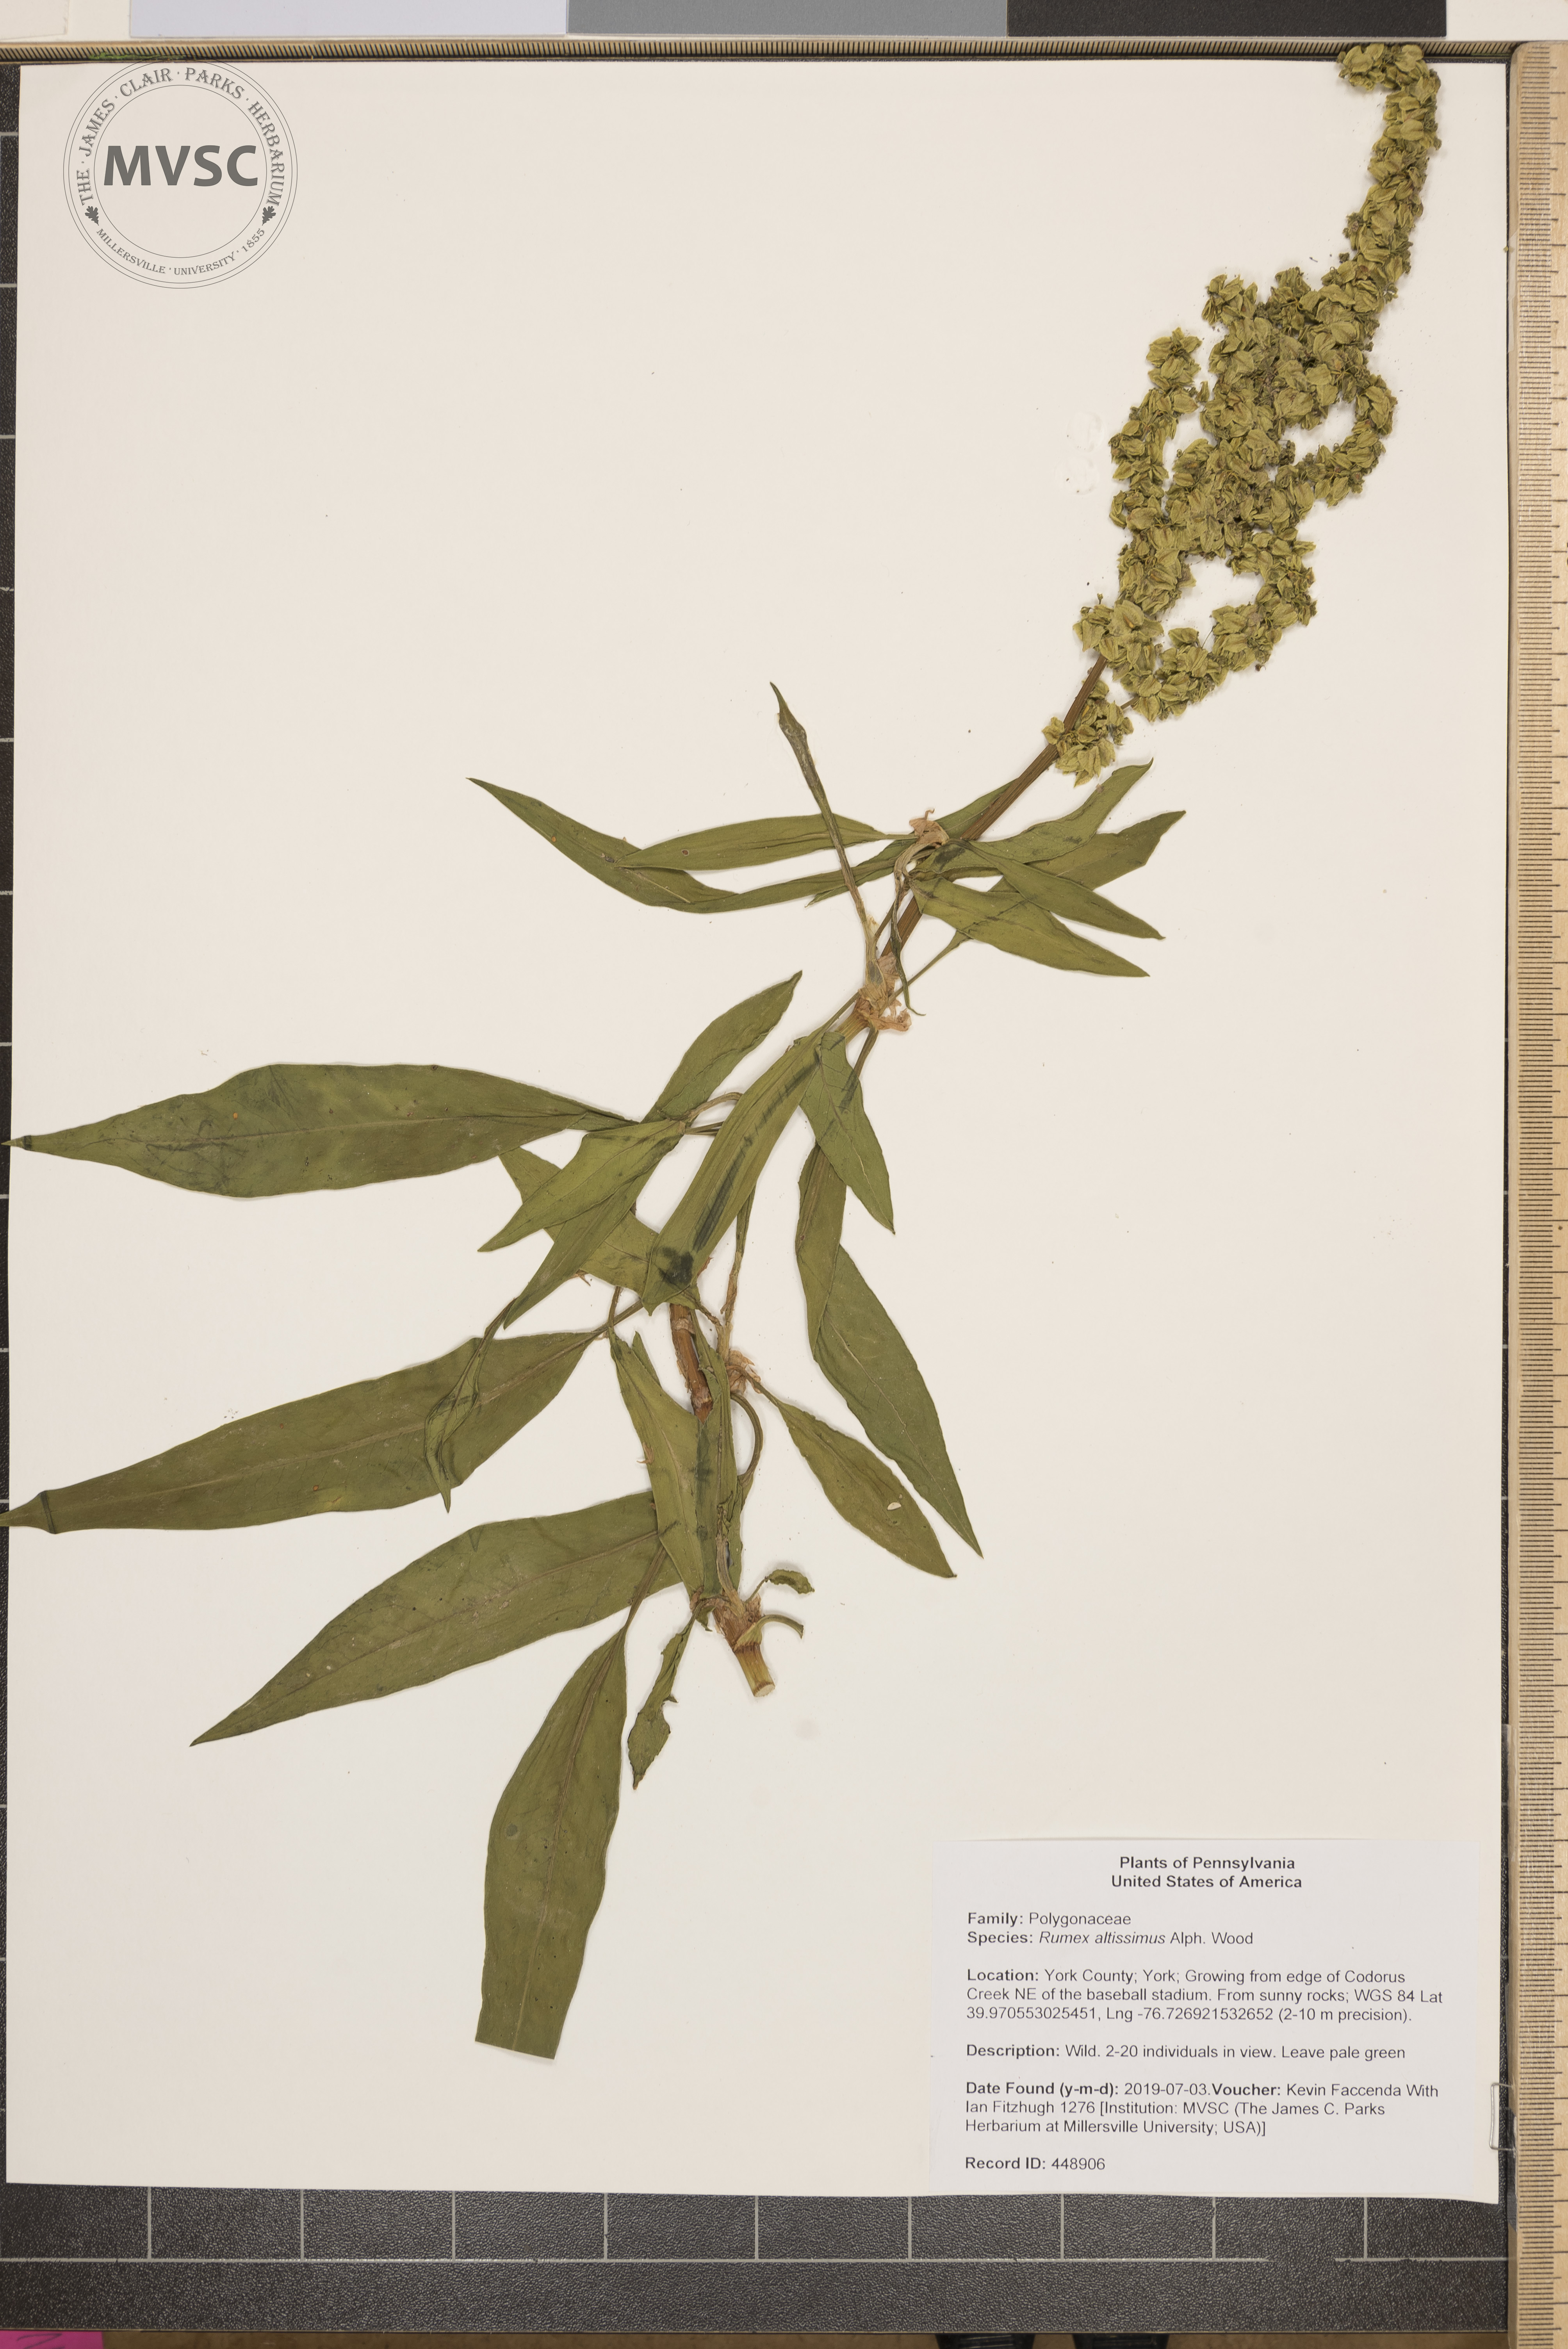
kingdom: Plantae
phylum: Tracheophyta
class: Magnoliopsida
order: Caryophyllales
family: Polygonaceae
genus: Rumex
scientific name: Rumex altissimus
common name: Smooth dock
